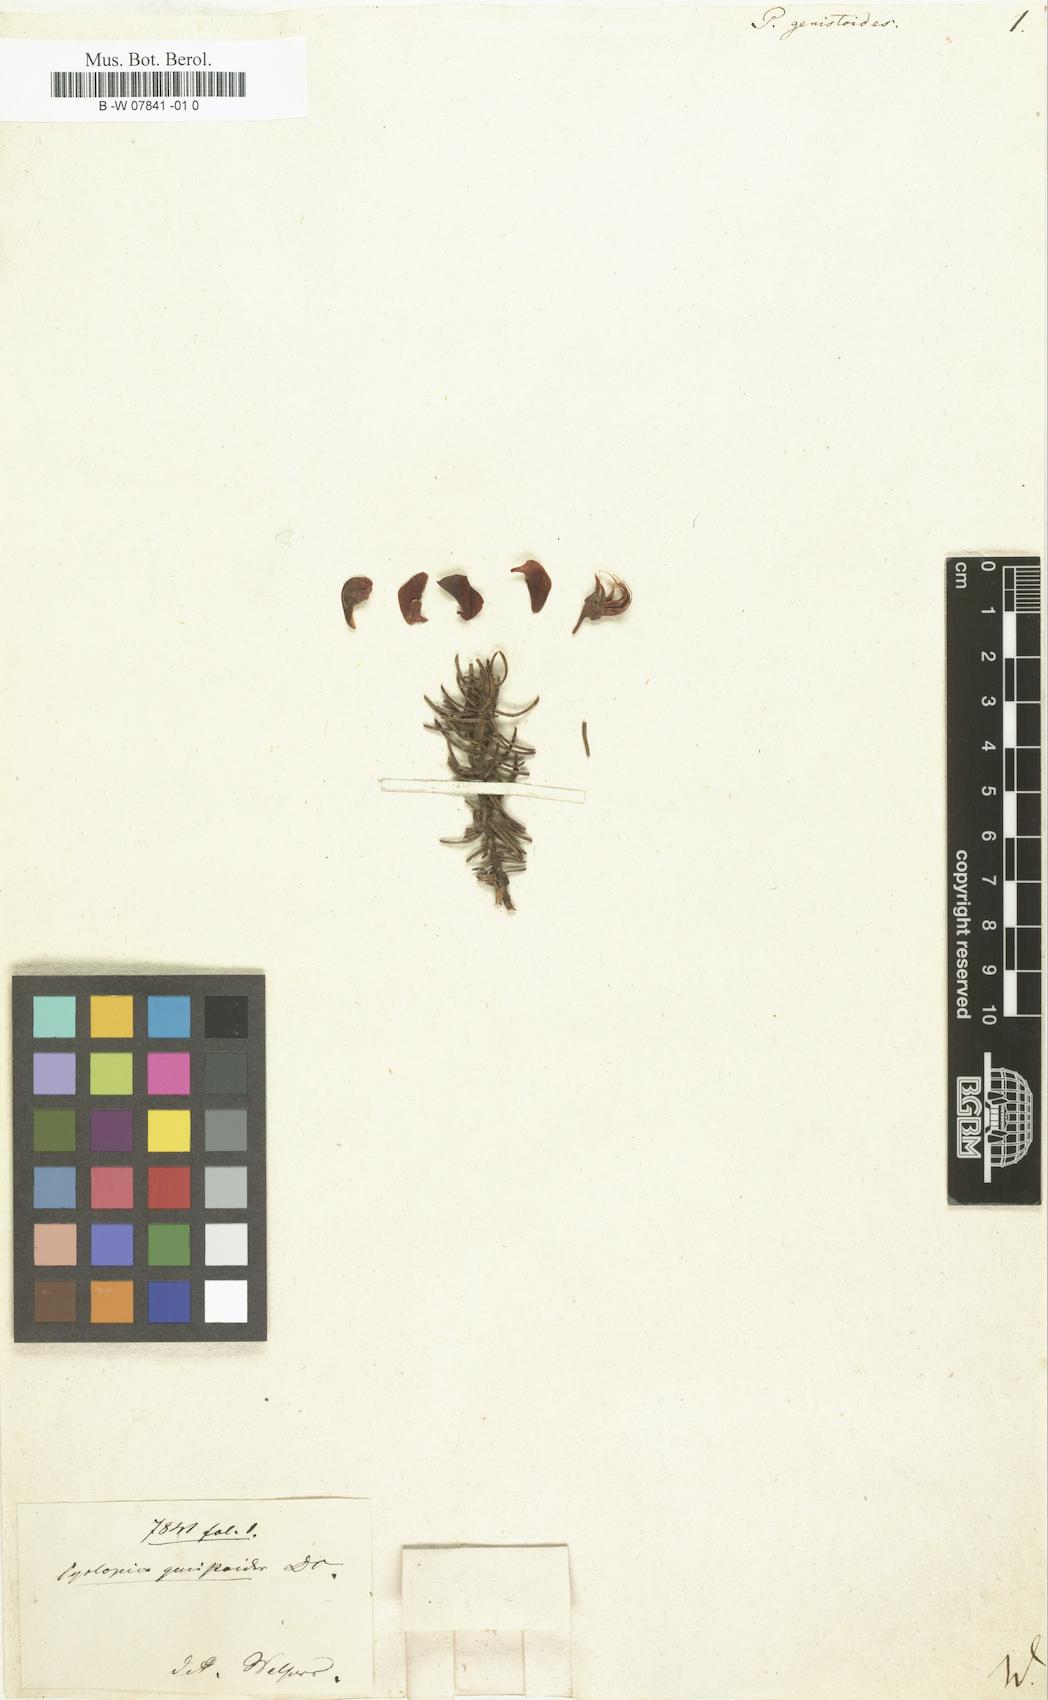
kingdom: Plantae
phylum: Tracheophyta
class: Magnoliopsida
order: Fabales
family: Fabaceae
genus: Cyclopia
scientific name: Cyclopia galioides
